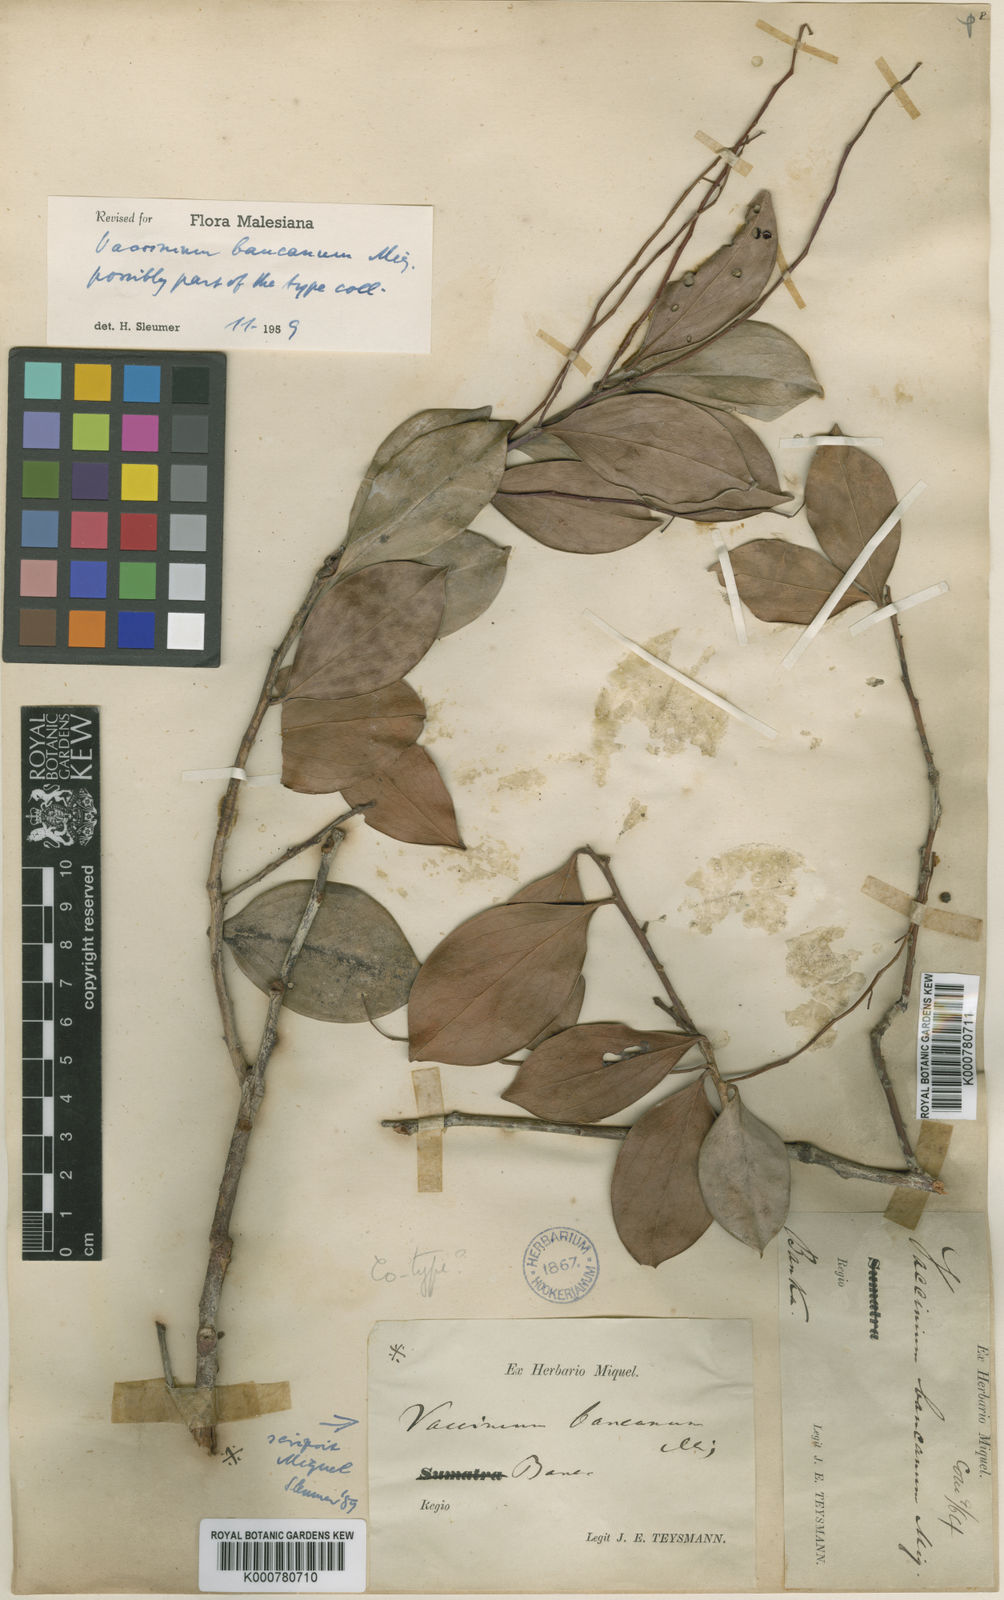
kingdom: Plantae
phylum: Tracheophyta
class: Magnoliopsida
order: Ericales
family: Ericaceae
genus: Vaccinium
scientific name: Vaccinium bancanum
